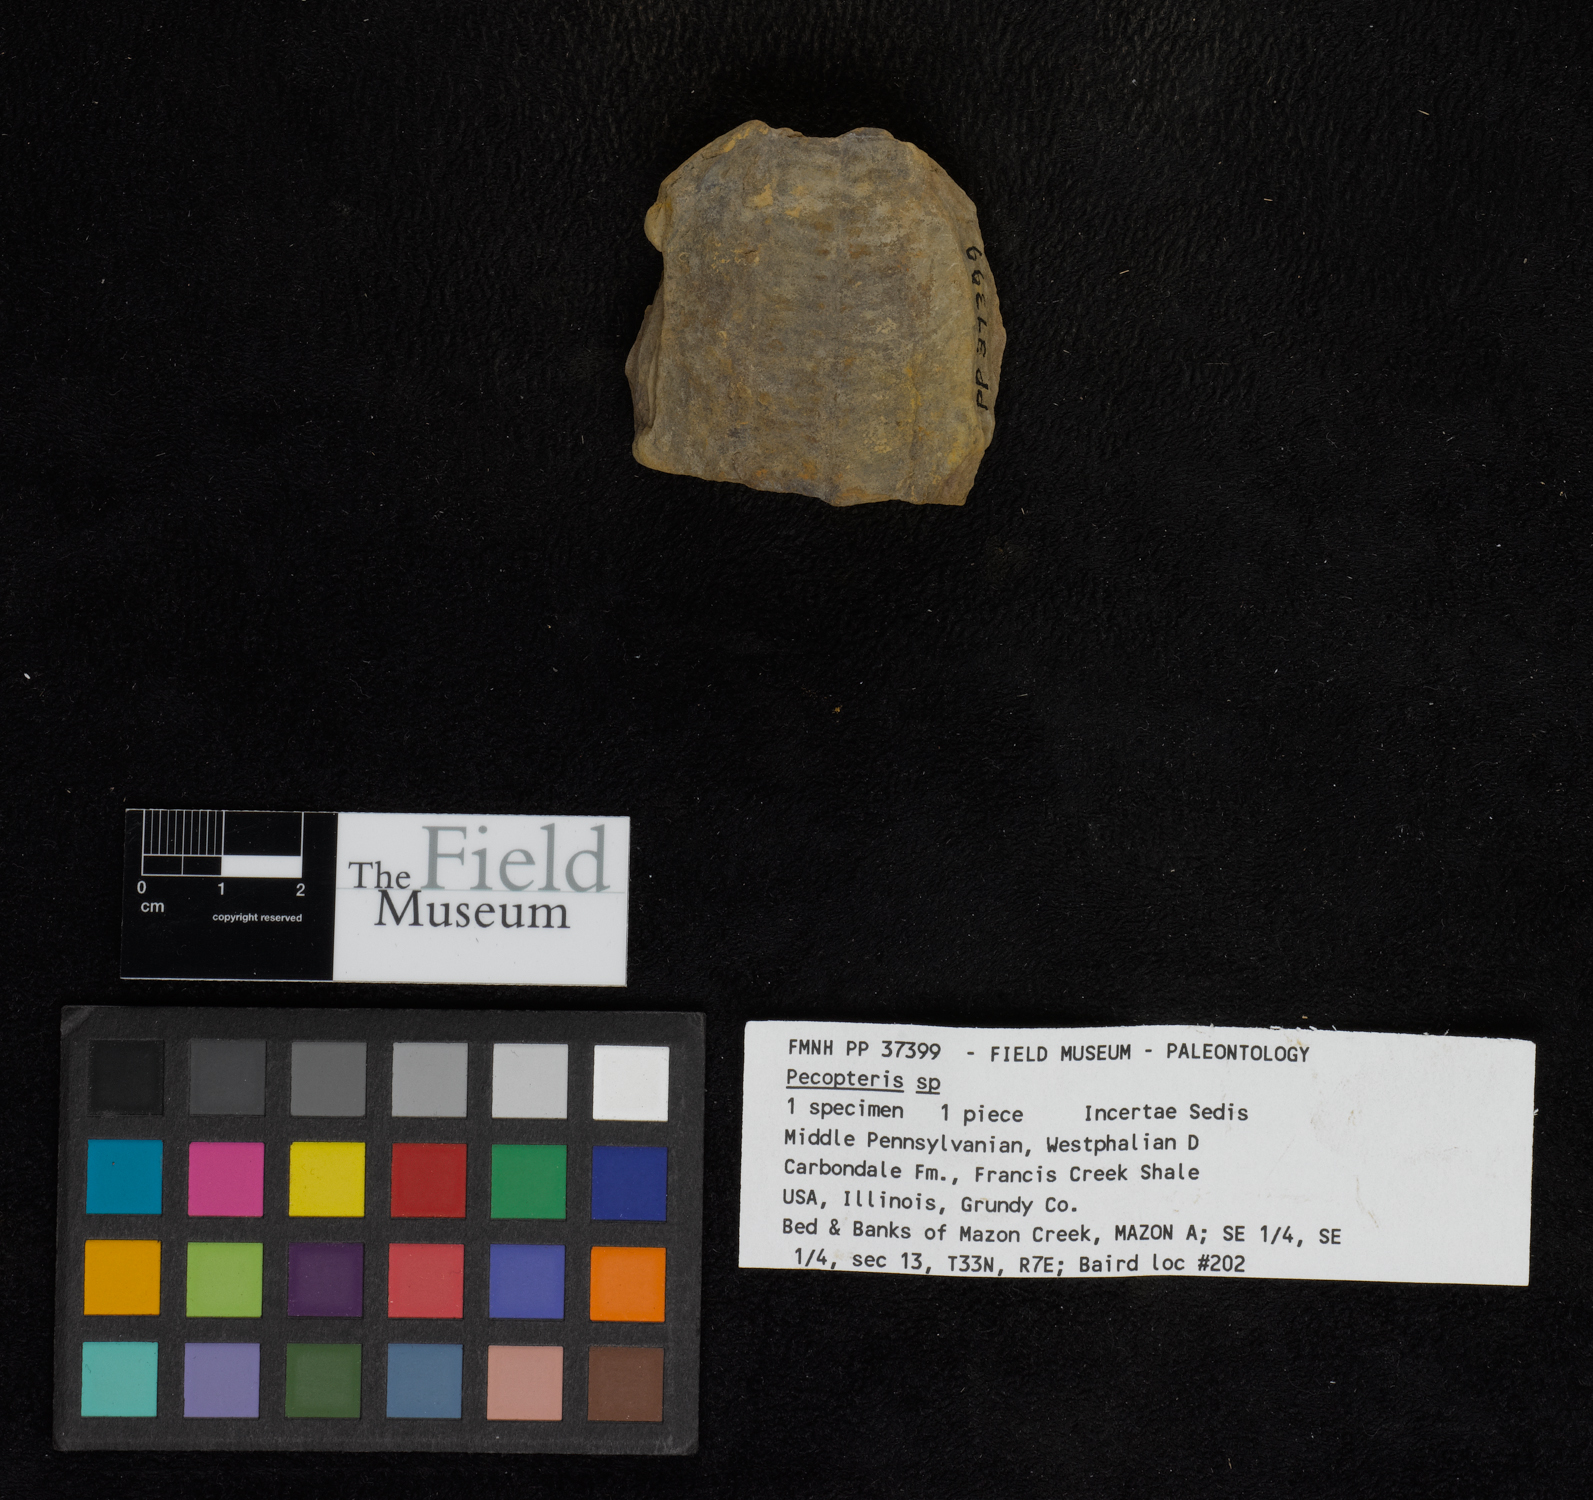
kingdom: Plantae
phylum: Tracheophyta
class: Polypodiopsida
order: Marattiales
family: Asterothecaceae
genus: Pecopteris
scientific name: Pecopteris
